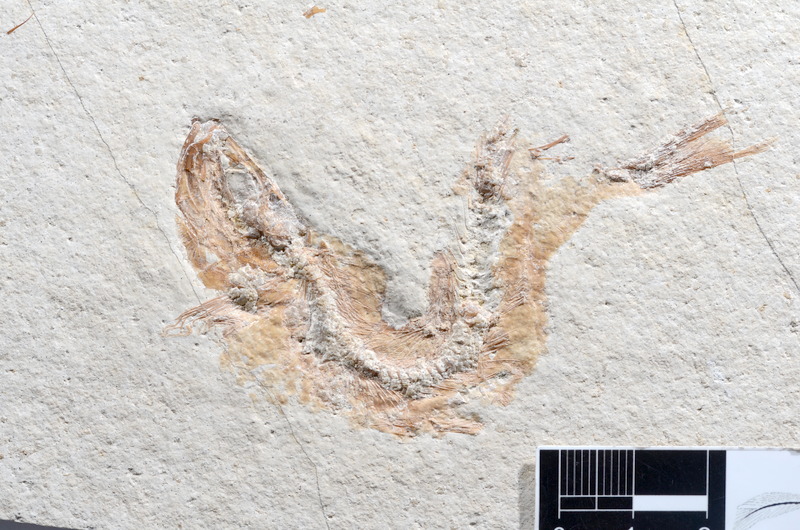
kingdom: Animalia
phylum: Chordata
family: Ascalaboidae
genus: Tharsis
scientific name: Tharsis dubius
